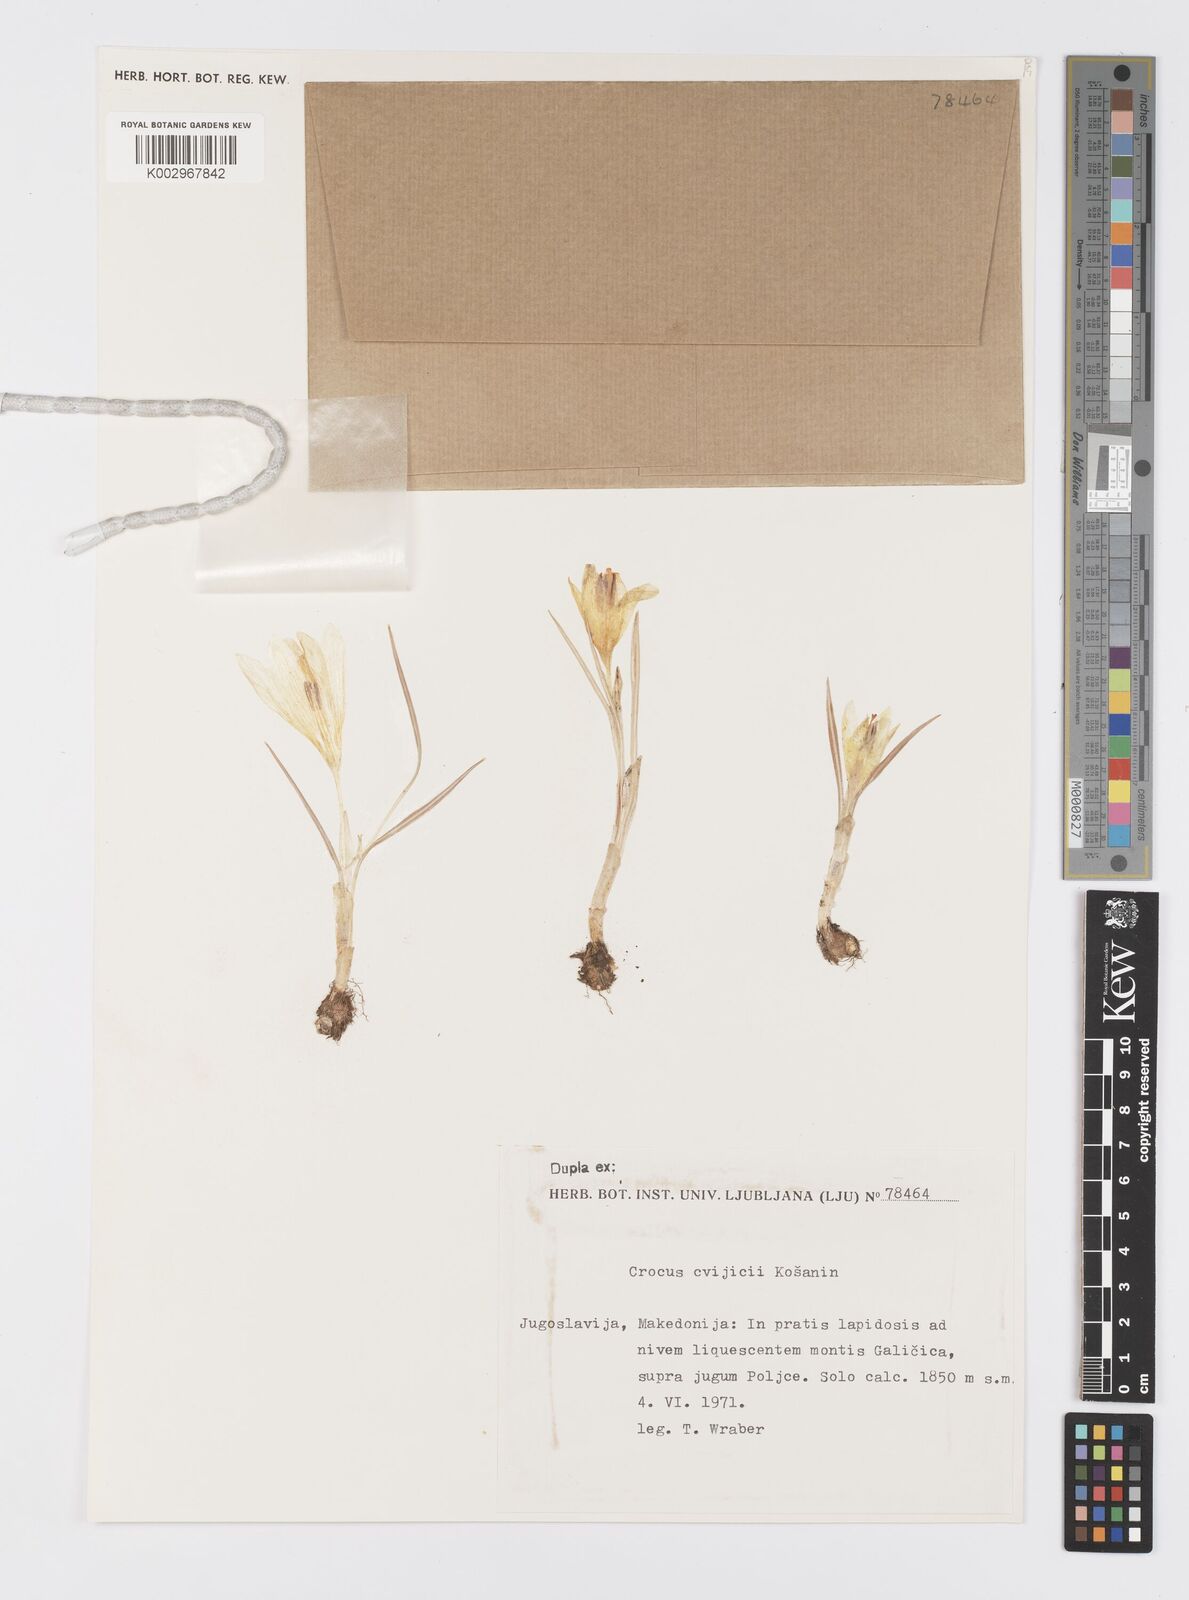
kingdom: Plantae
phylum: Tracheophyta
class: Liliopsida
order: Asparagales
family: Iridaceae
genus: Crocus
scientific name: Crocus cvijicii
